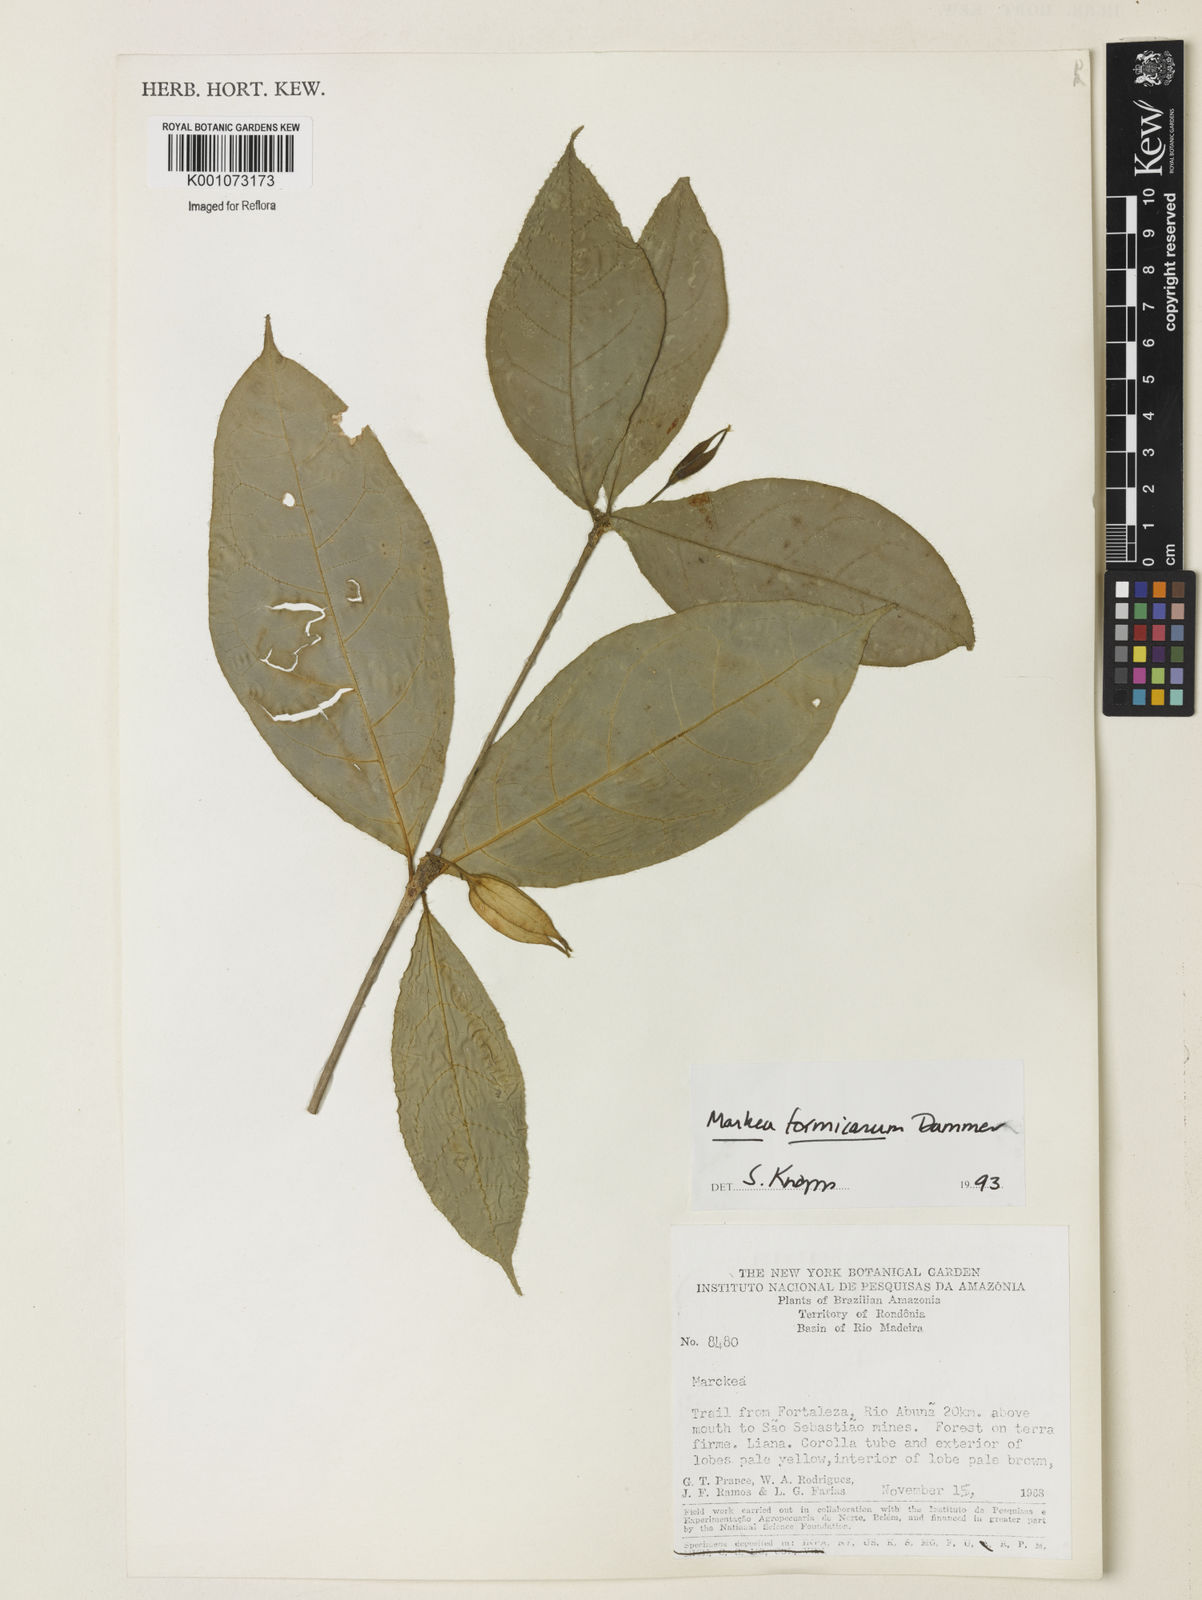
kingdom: Plantae
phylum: Tracheophyta
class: Magnoliopsida
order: Solanales
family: Solanaceae
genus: Markea
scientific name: Markea formicarum
